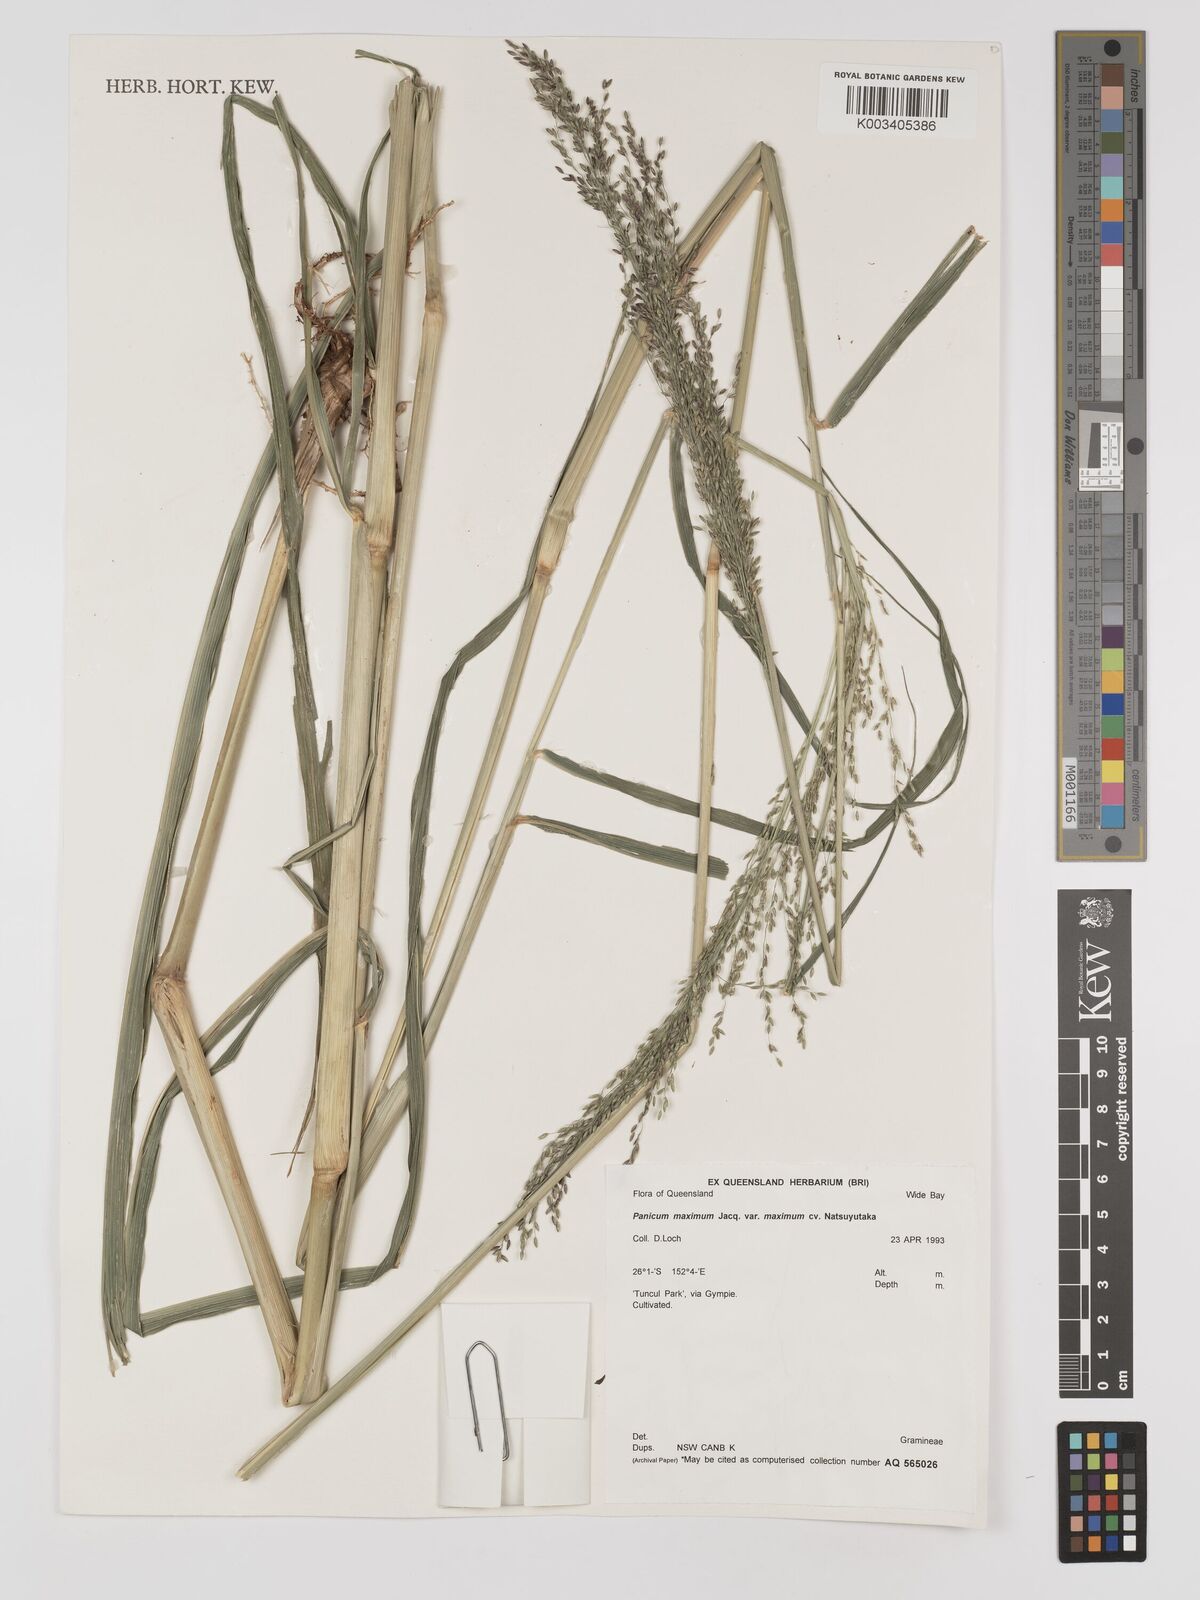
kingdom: Plantae
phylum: Tracheophyta
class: Liliopsida
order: Poales
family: Poaceae
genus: Megathyrsus
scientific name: Megathyrsus maximus
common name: Guineagrass
